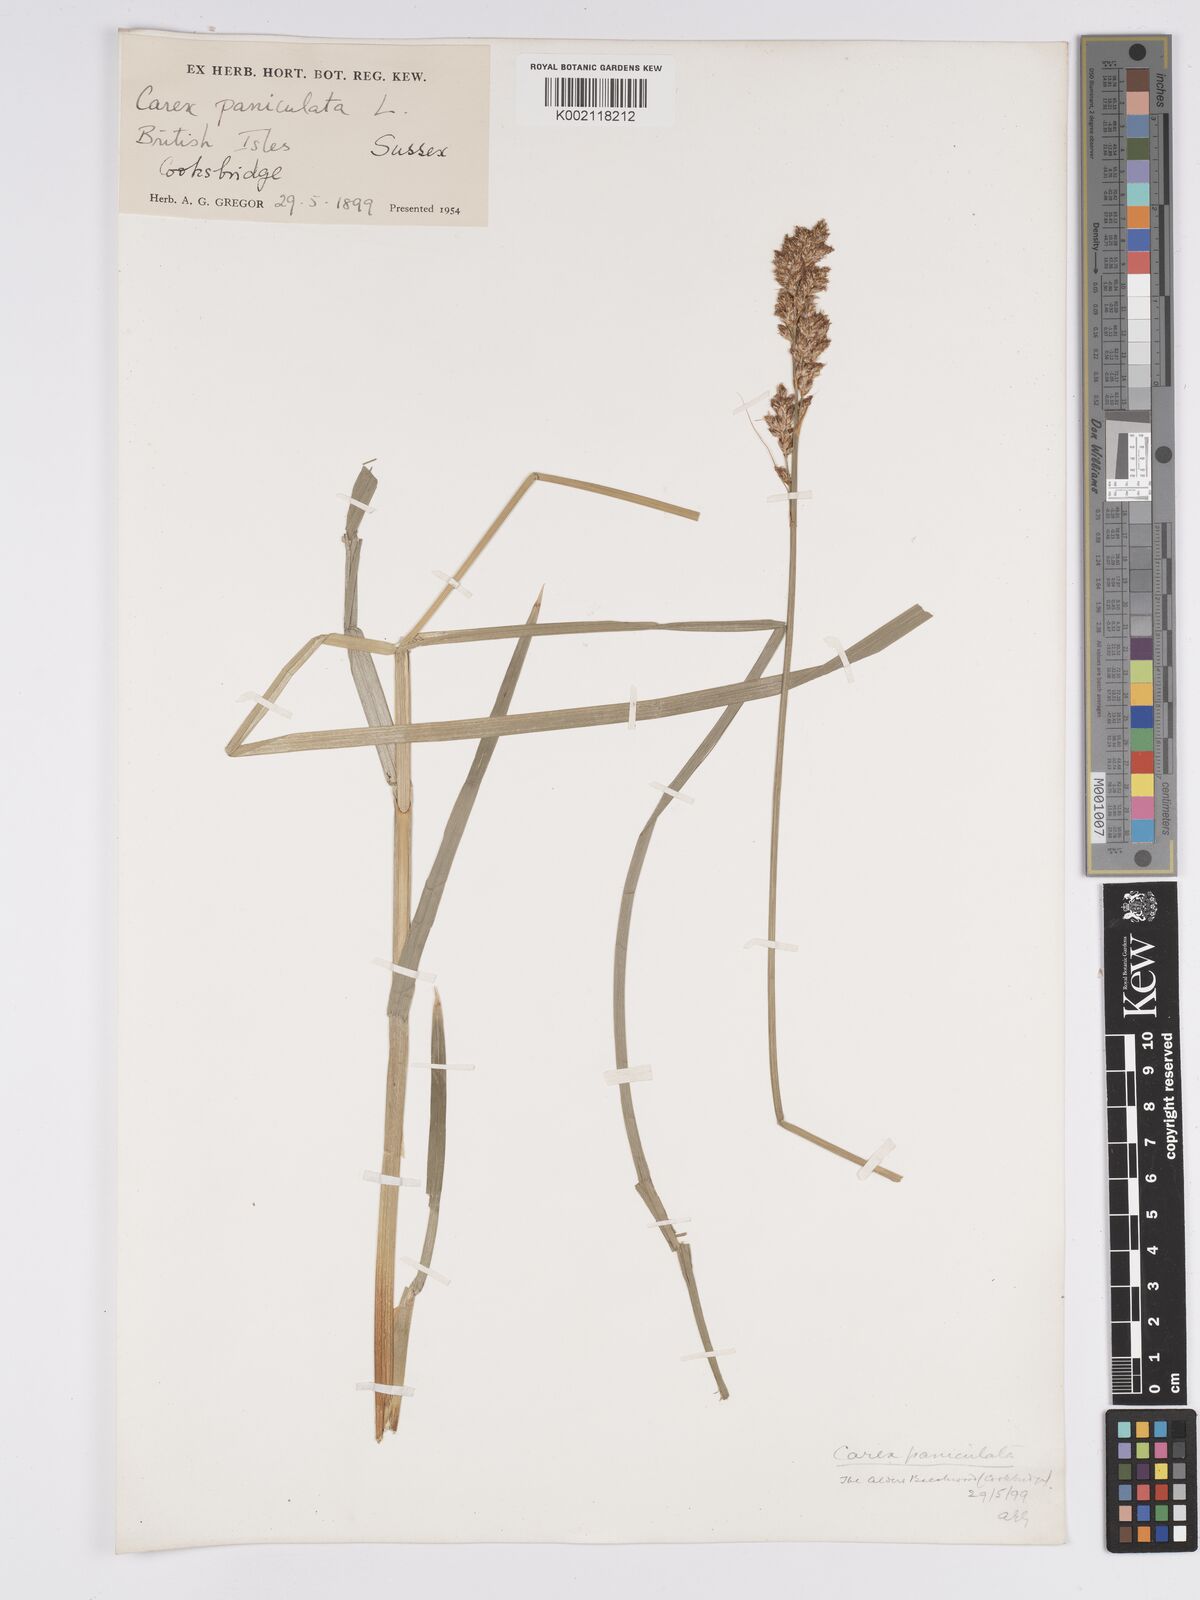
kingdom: Plantae
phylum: Tracheophyta
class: Liliopsida
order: Poales
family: Cyperaceae
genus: Carex
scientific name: Carex paniculata
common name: Greater tussock-sedge
